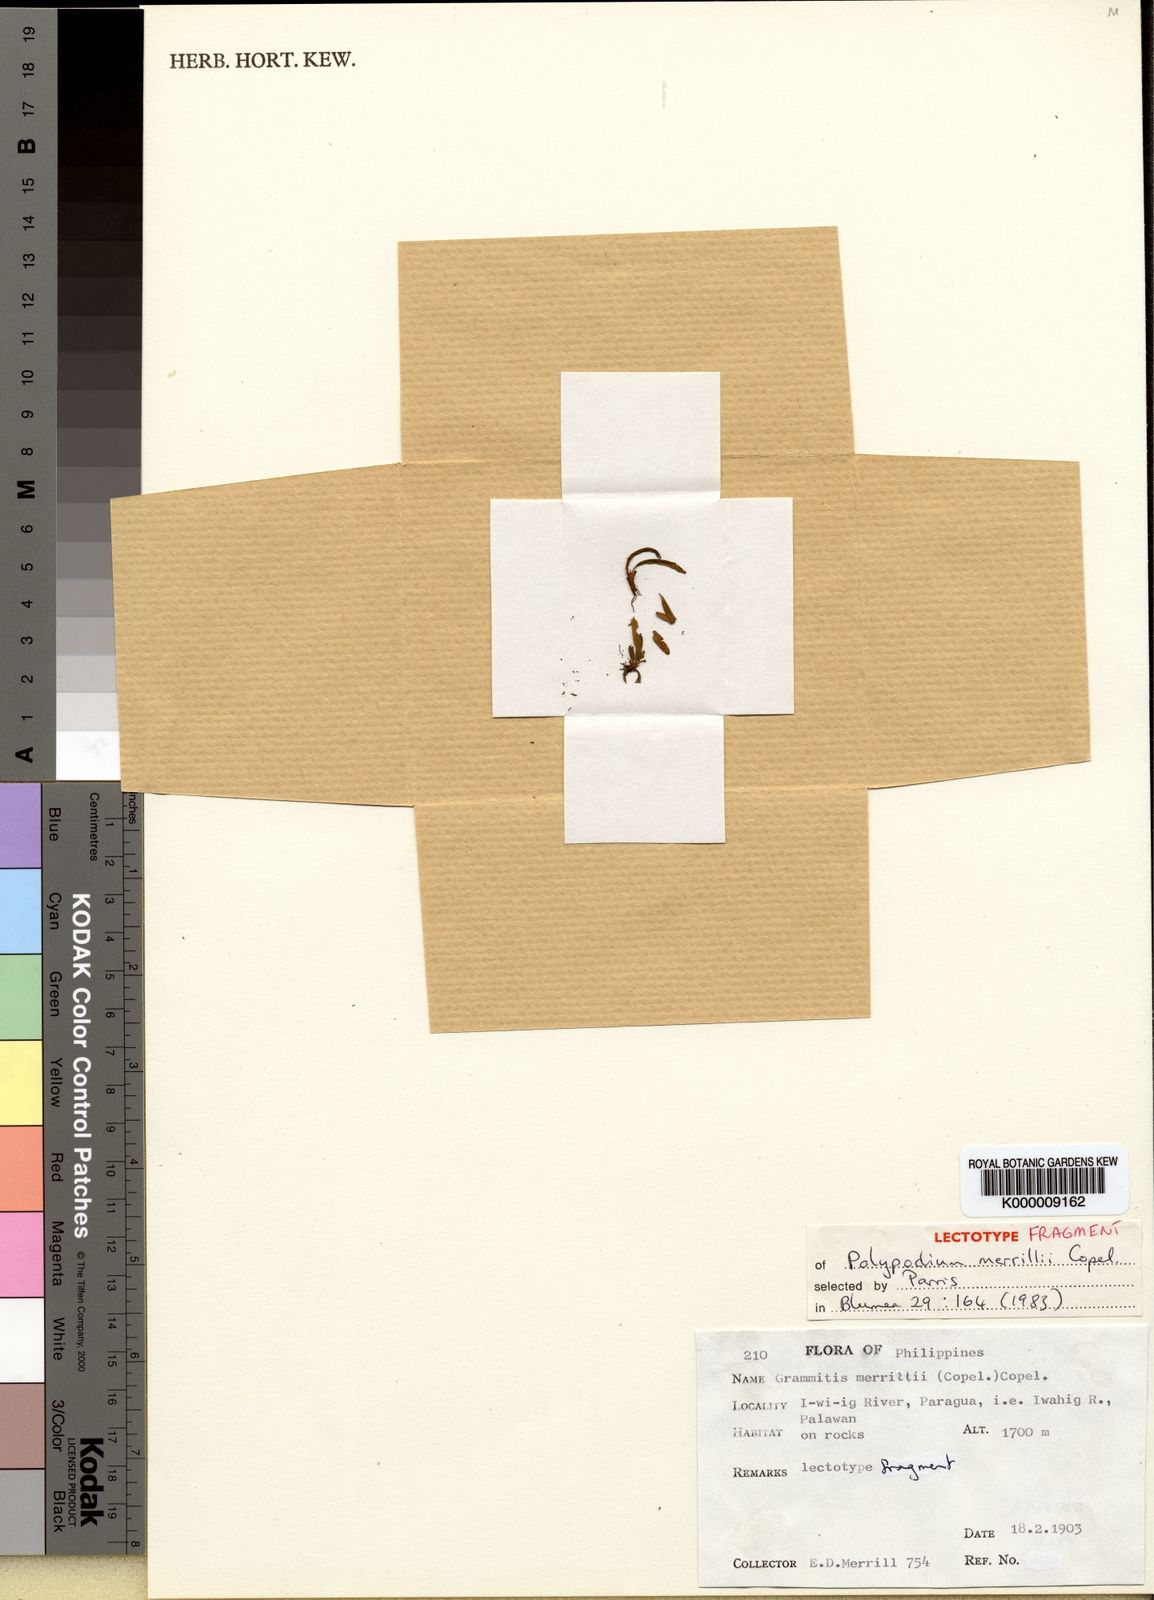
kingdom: Plantae
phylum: Tracheophyta
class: Polypodiopsida
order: Polypodiales
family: Polypodiaceae
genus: Oreogrammitis
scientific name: Oreogrammitis merrillii
